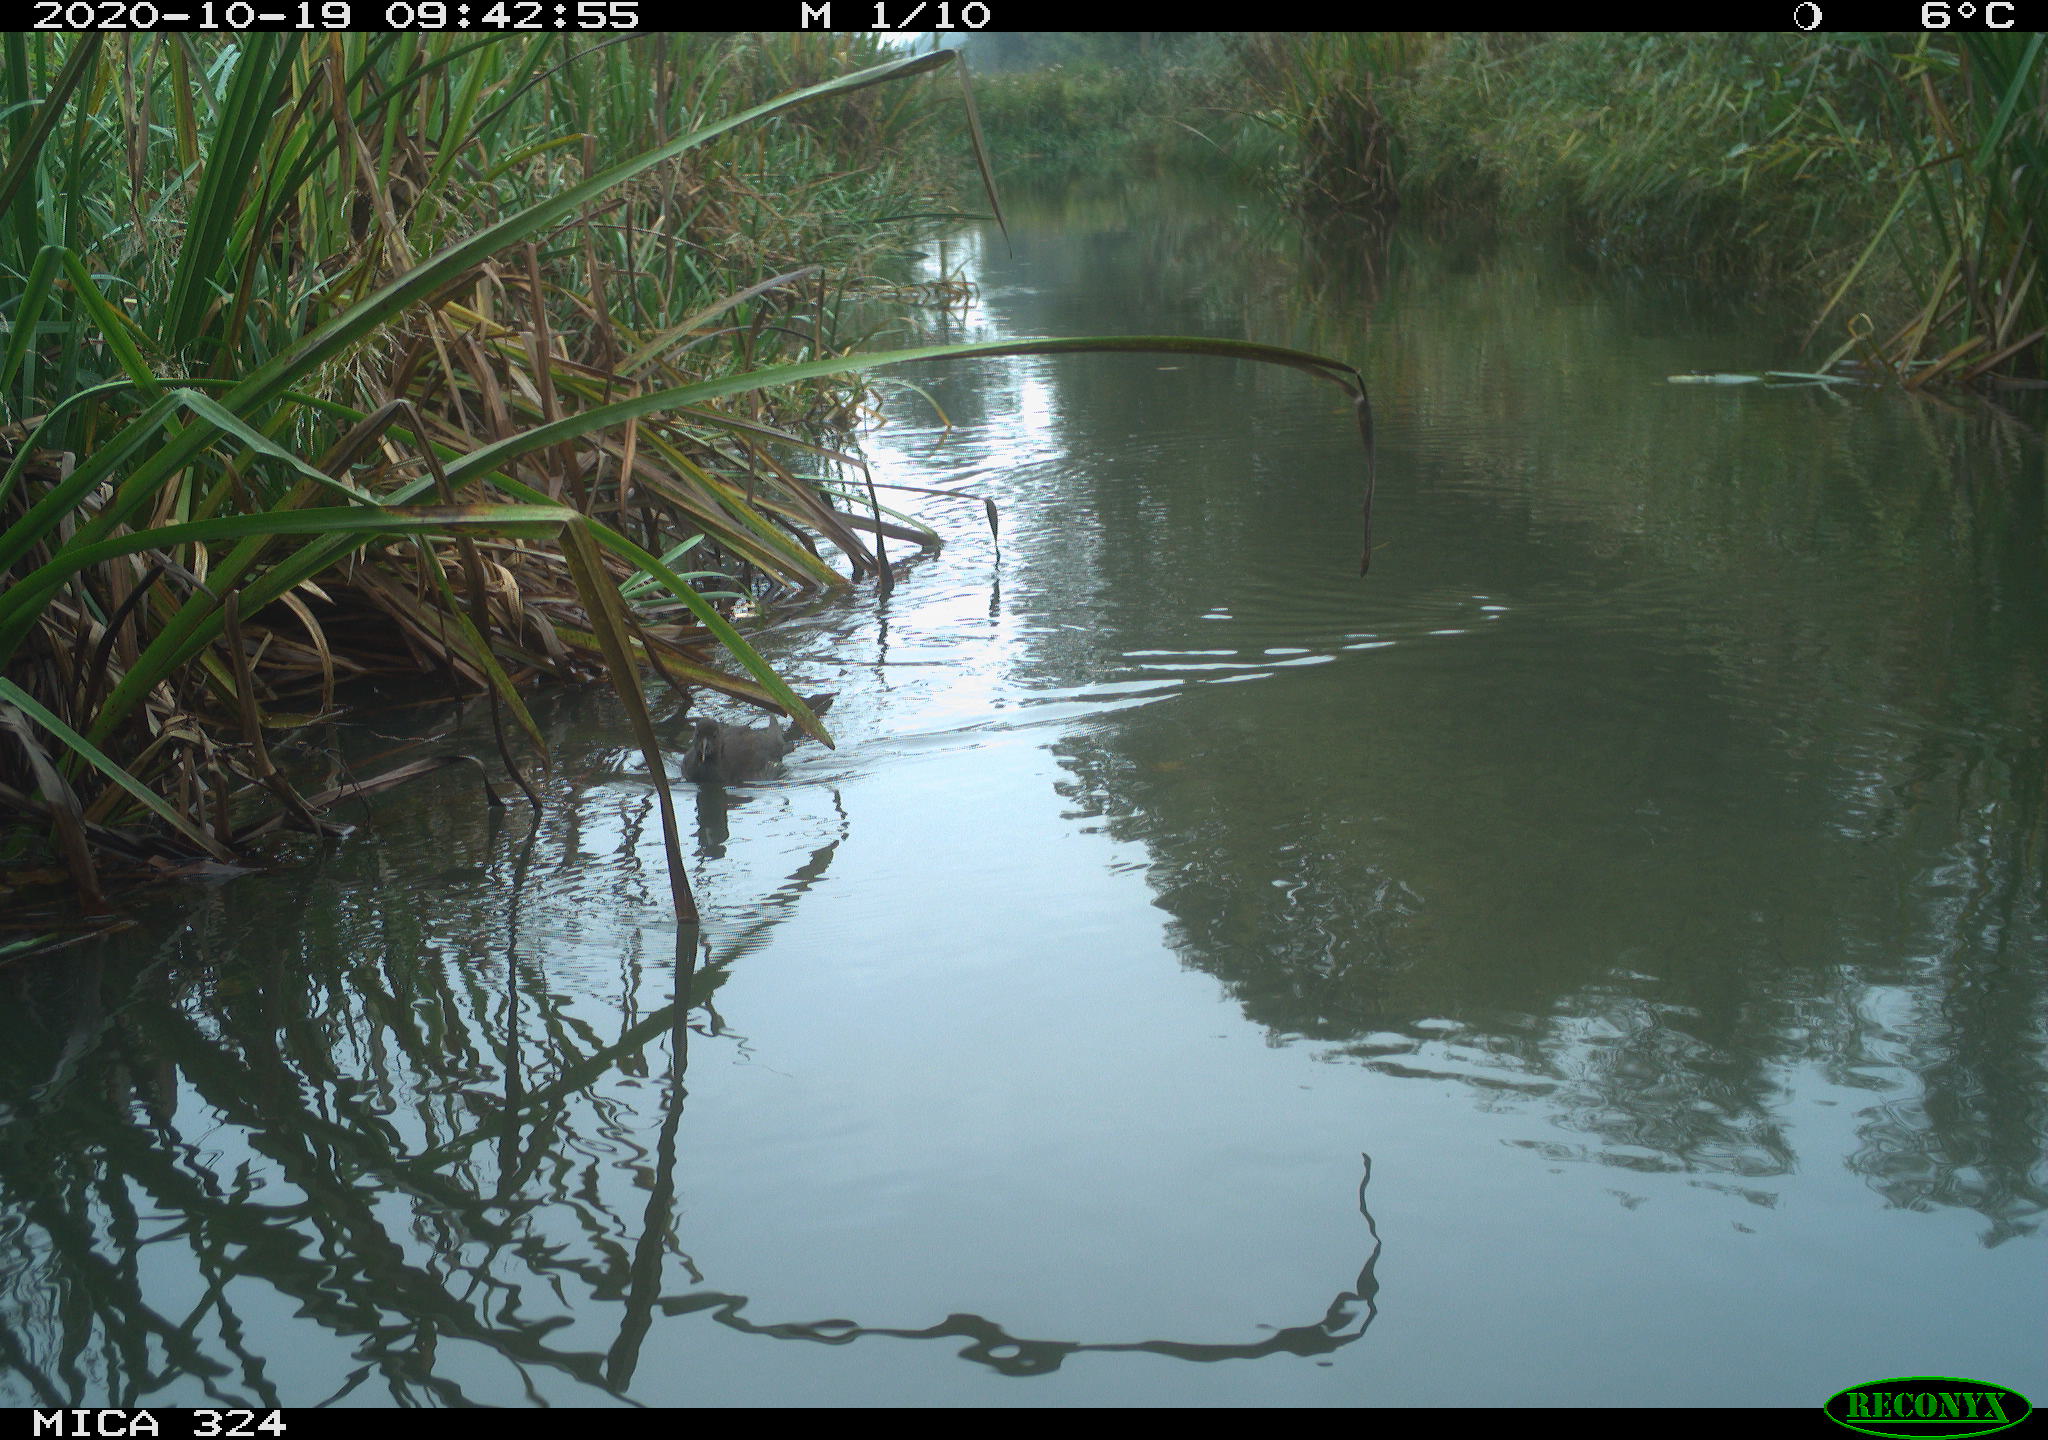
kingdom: Animalia
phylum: Chordata
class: Aves
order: Gruiformes
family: Rallidae
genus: Gallinula
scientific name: Gallinula chloropus
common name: Common moorhen
